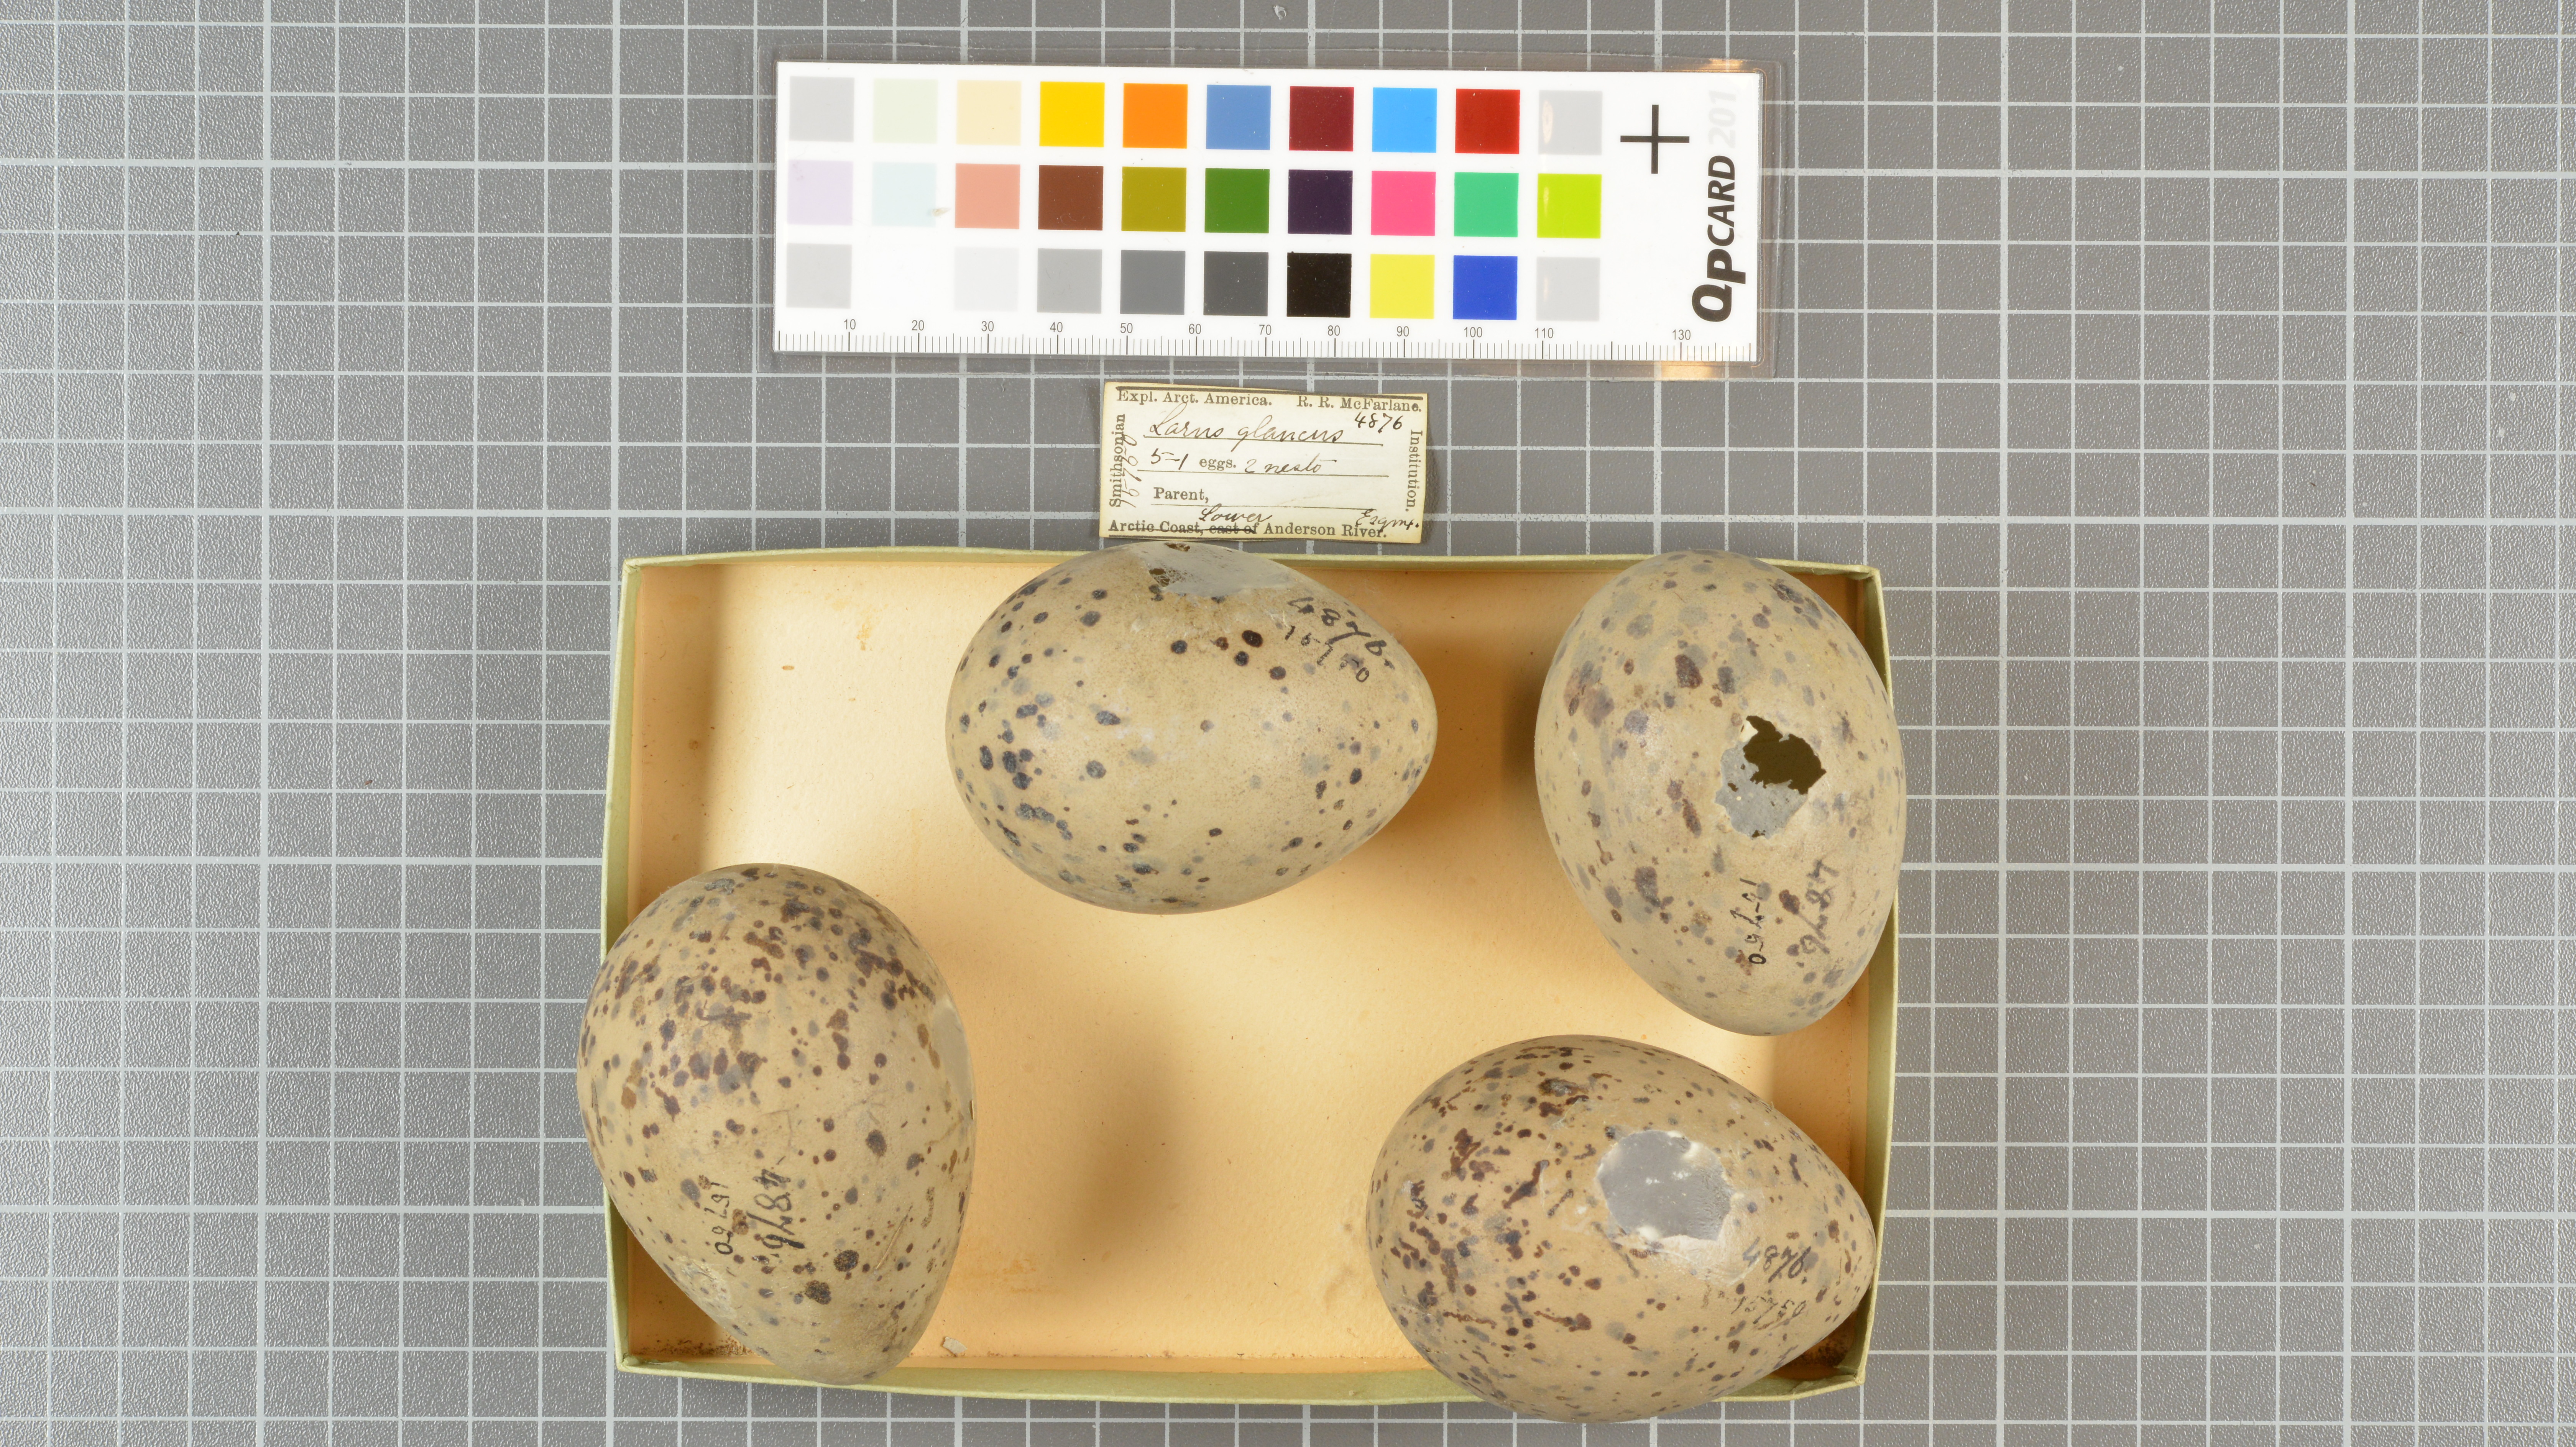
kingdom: Animalia
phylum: Chordata
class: Aves
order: Charadriiformes
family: Laridae
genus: Larus
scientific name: Larus hyperboreus
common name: Glaucous gull
